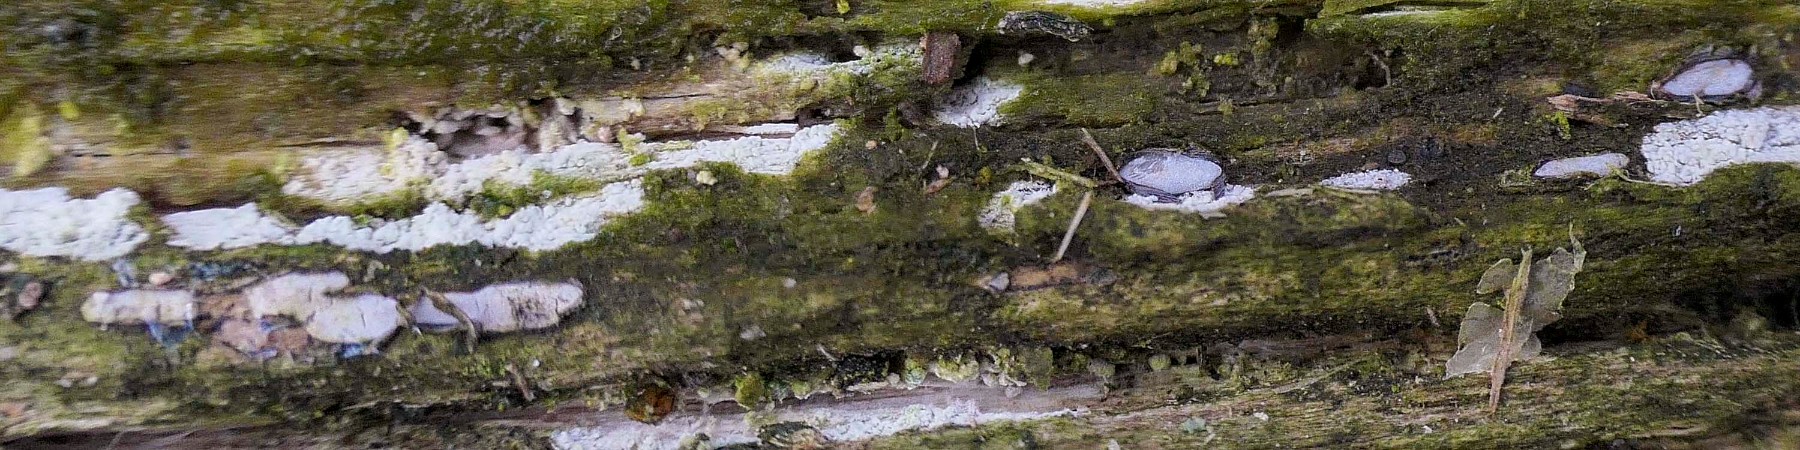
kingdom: Fungi
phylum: Ascomycota
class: Leotiomycetes
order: Chaetomellales
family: Marthamycetaceae
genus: Propolis
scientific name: Propolis farinosa
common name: almindelig vedsprængerskive
